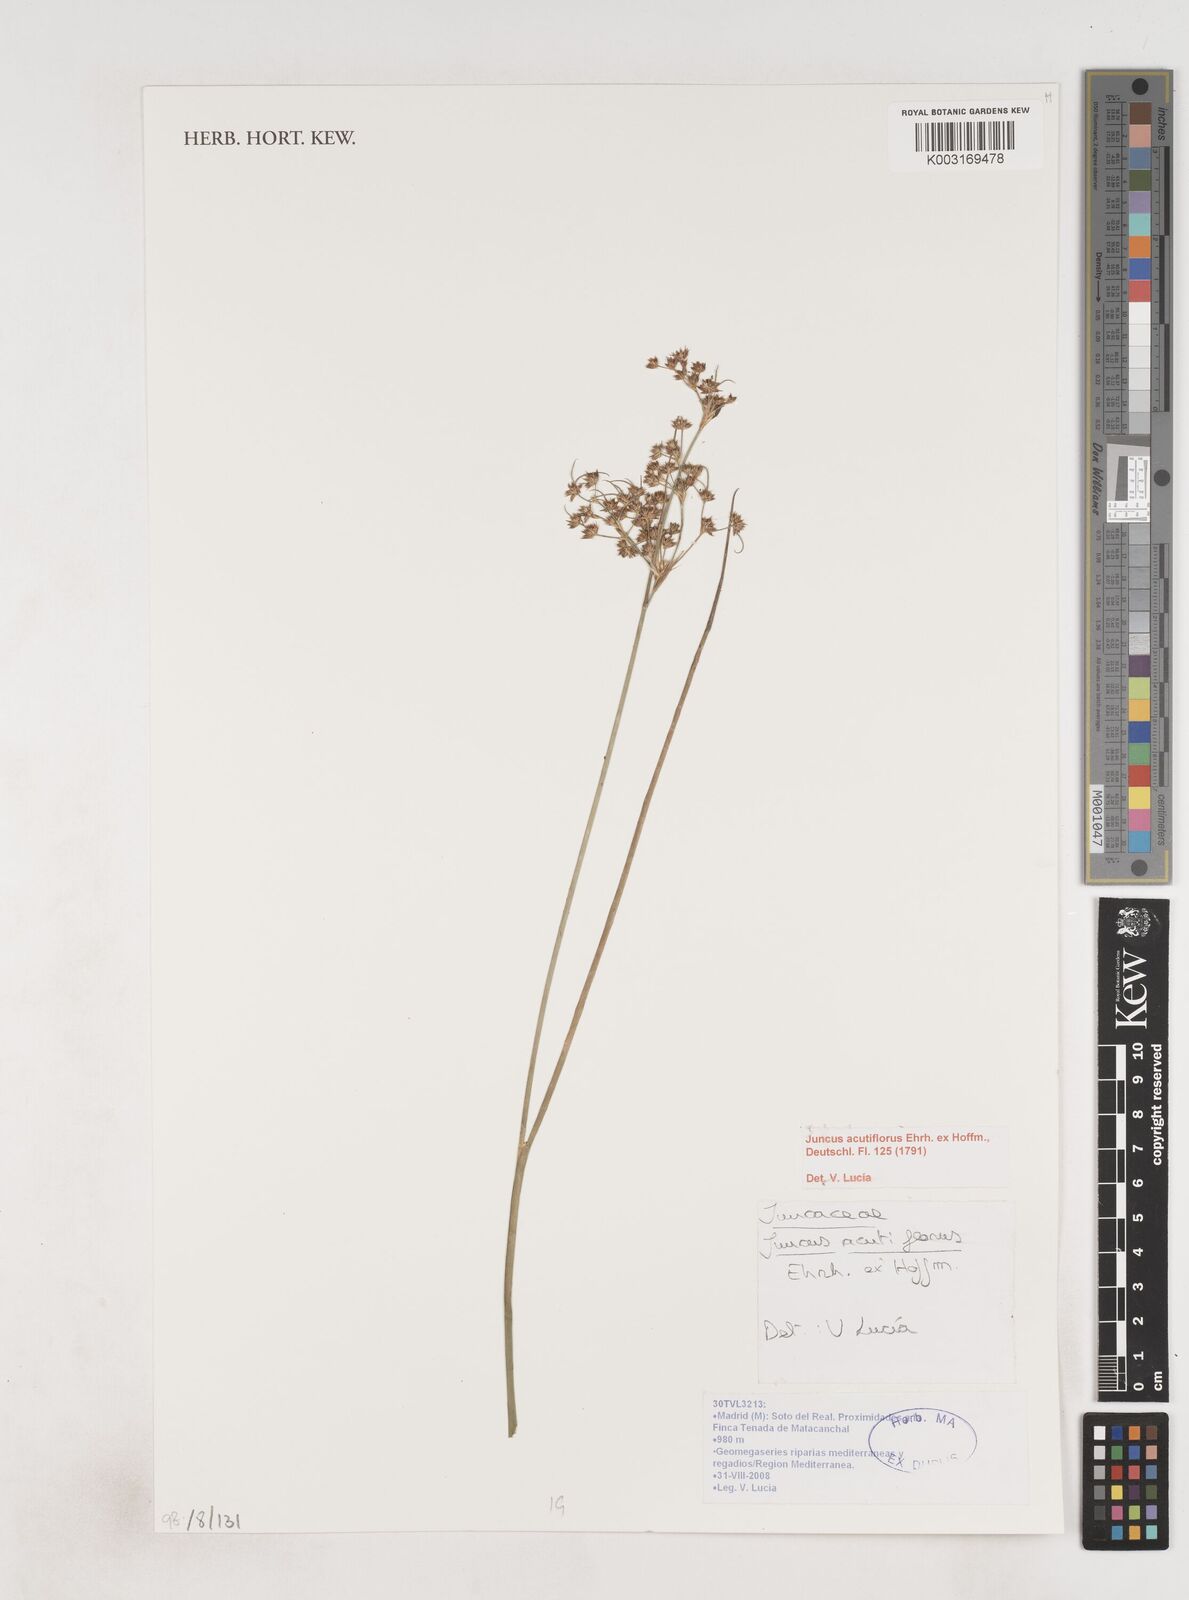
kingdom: Plantae
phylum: Tracheophyta
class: Liliopsida
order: Poales
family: Juncaceae
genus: Juncus
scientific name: Juncus acutiflorus
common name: Sharp-flowered rush
